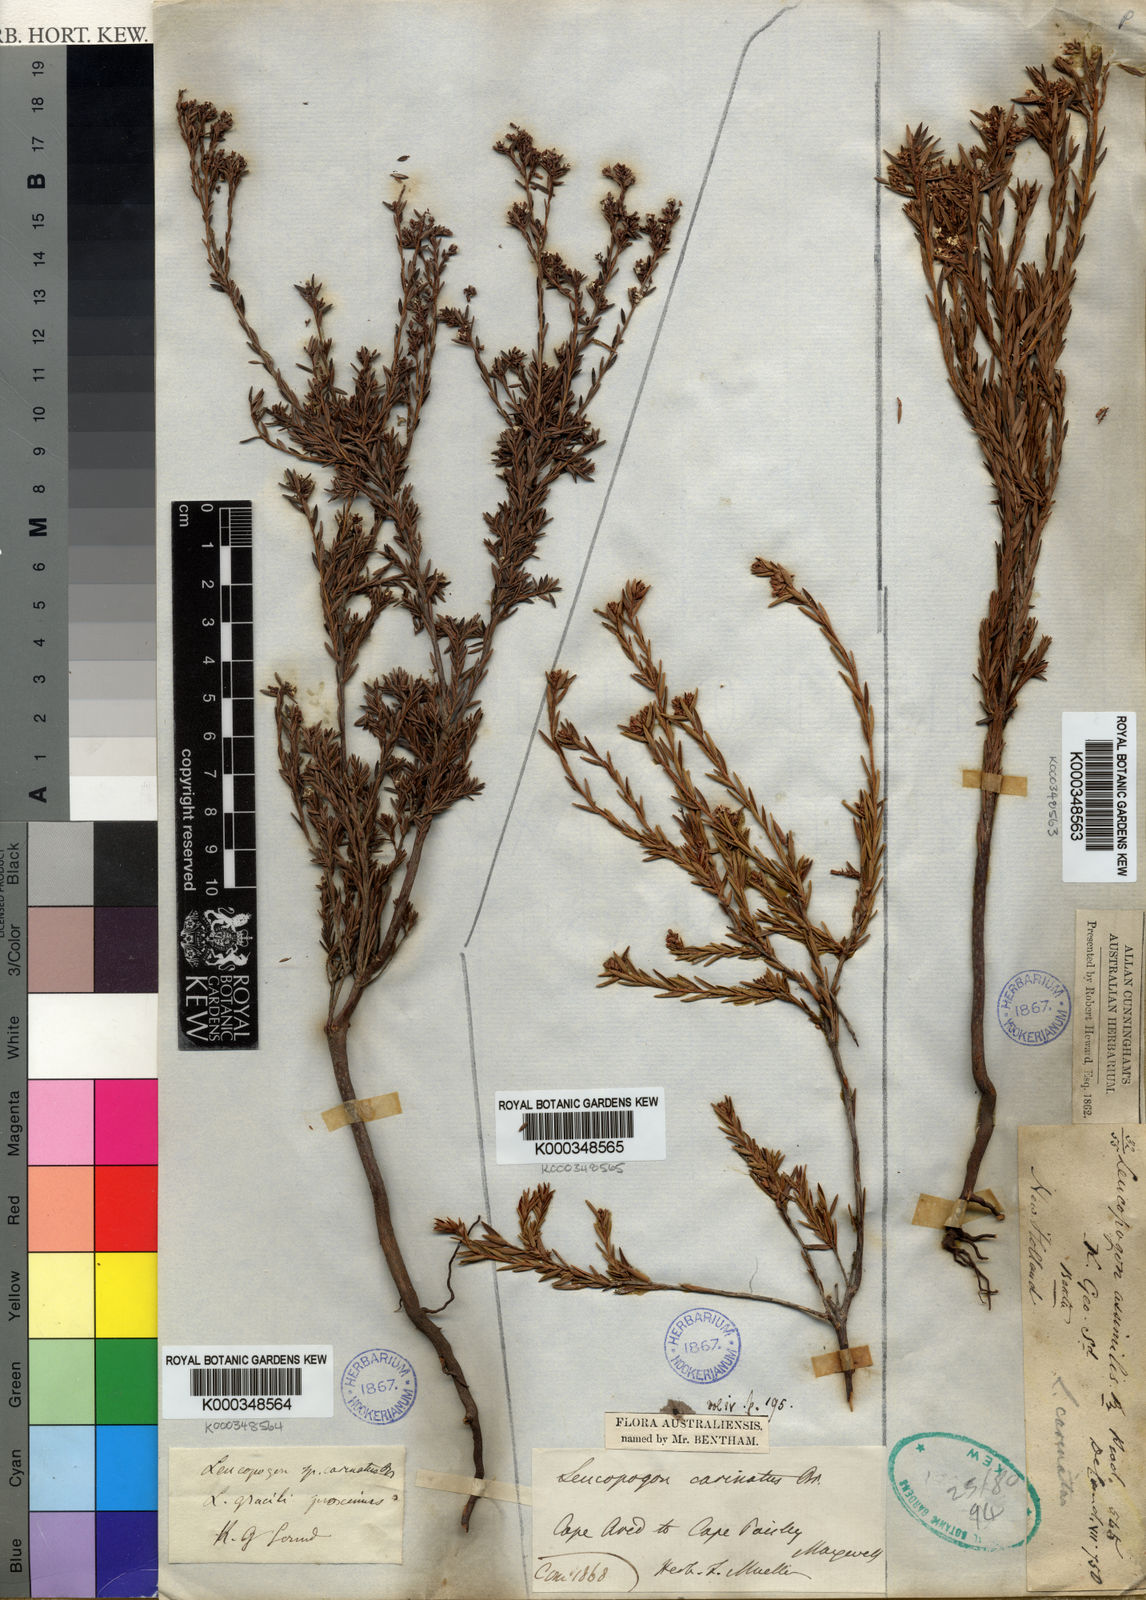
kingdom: Plantae
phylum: Tracheophyta
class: Magnoliopsida
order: Ericales
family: Ericaceae
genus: Leucopogon
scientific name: Leucopogon carinatus
